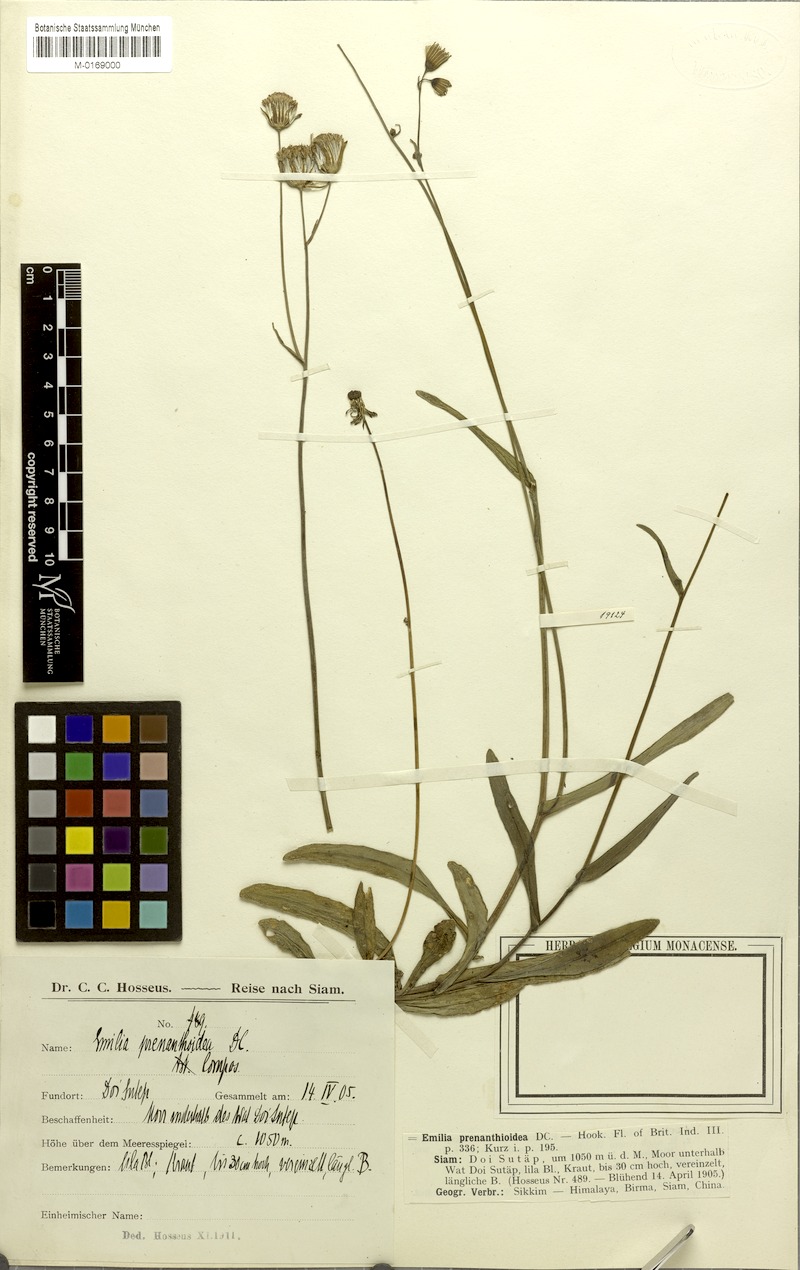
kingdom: Plantae
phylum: Tracheophyta
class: Magnoliopsida
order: Asterales
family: Asteraceae
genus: Emilia
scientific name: Emilia prenanthoidea
